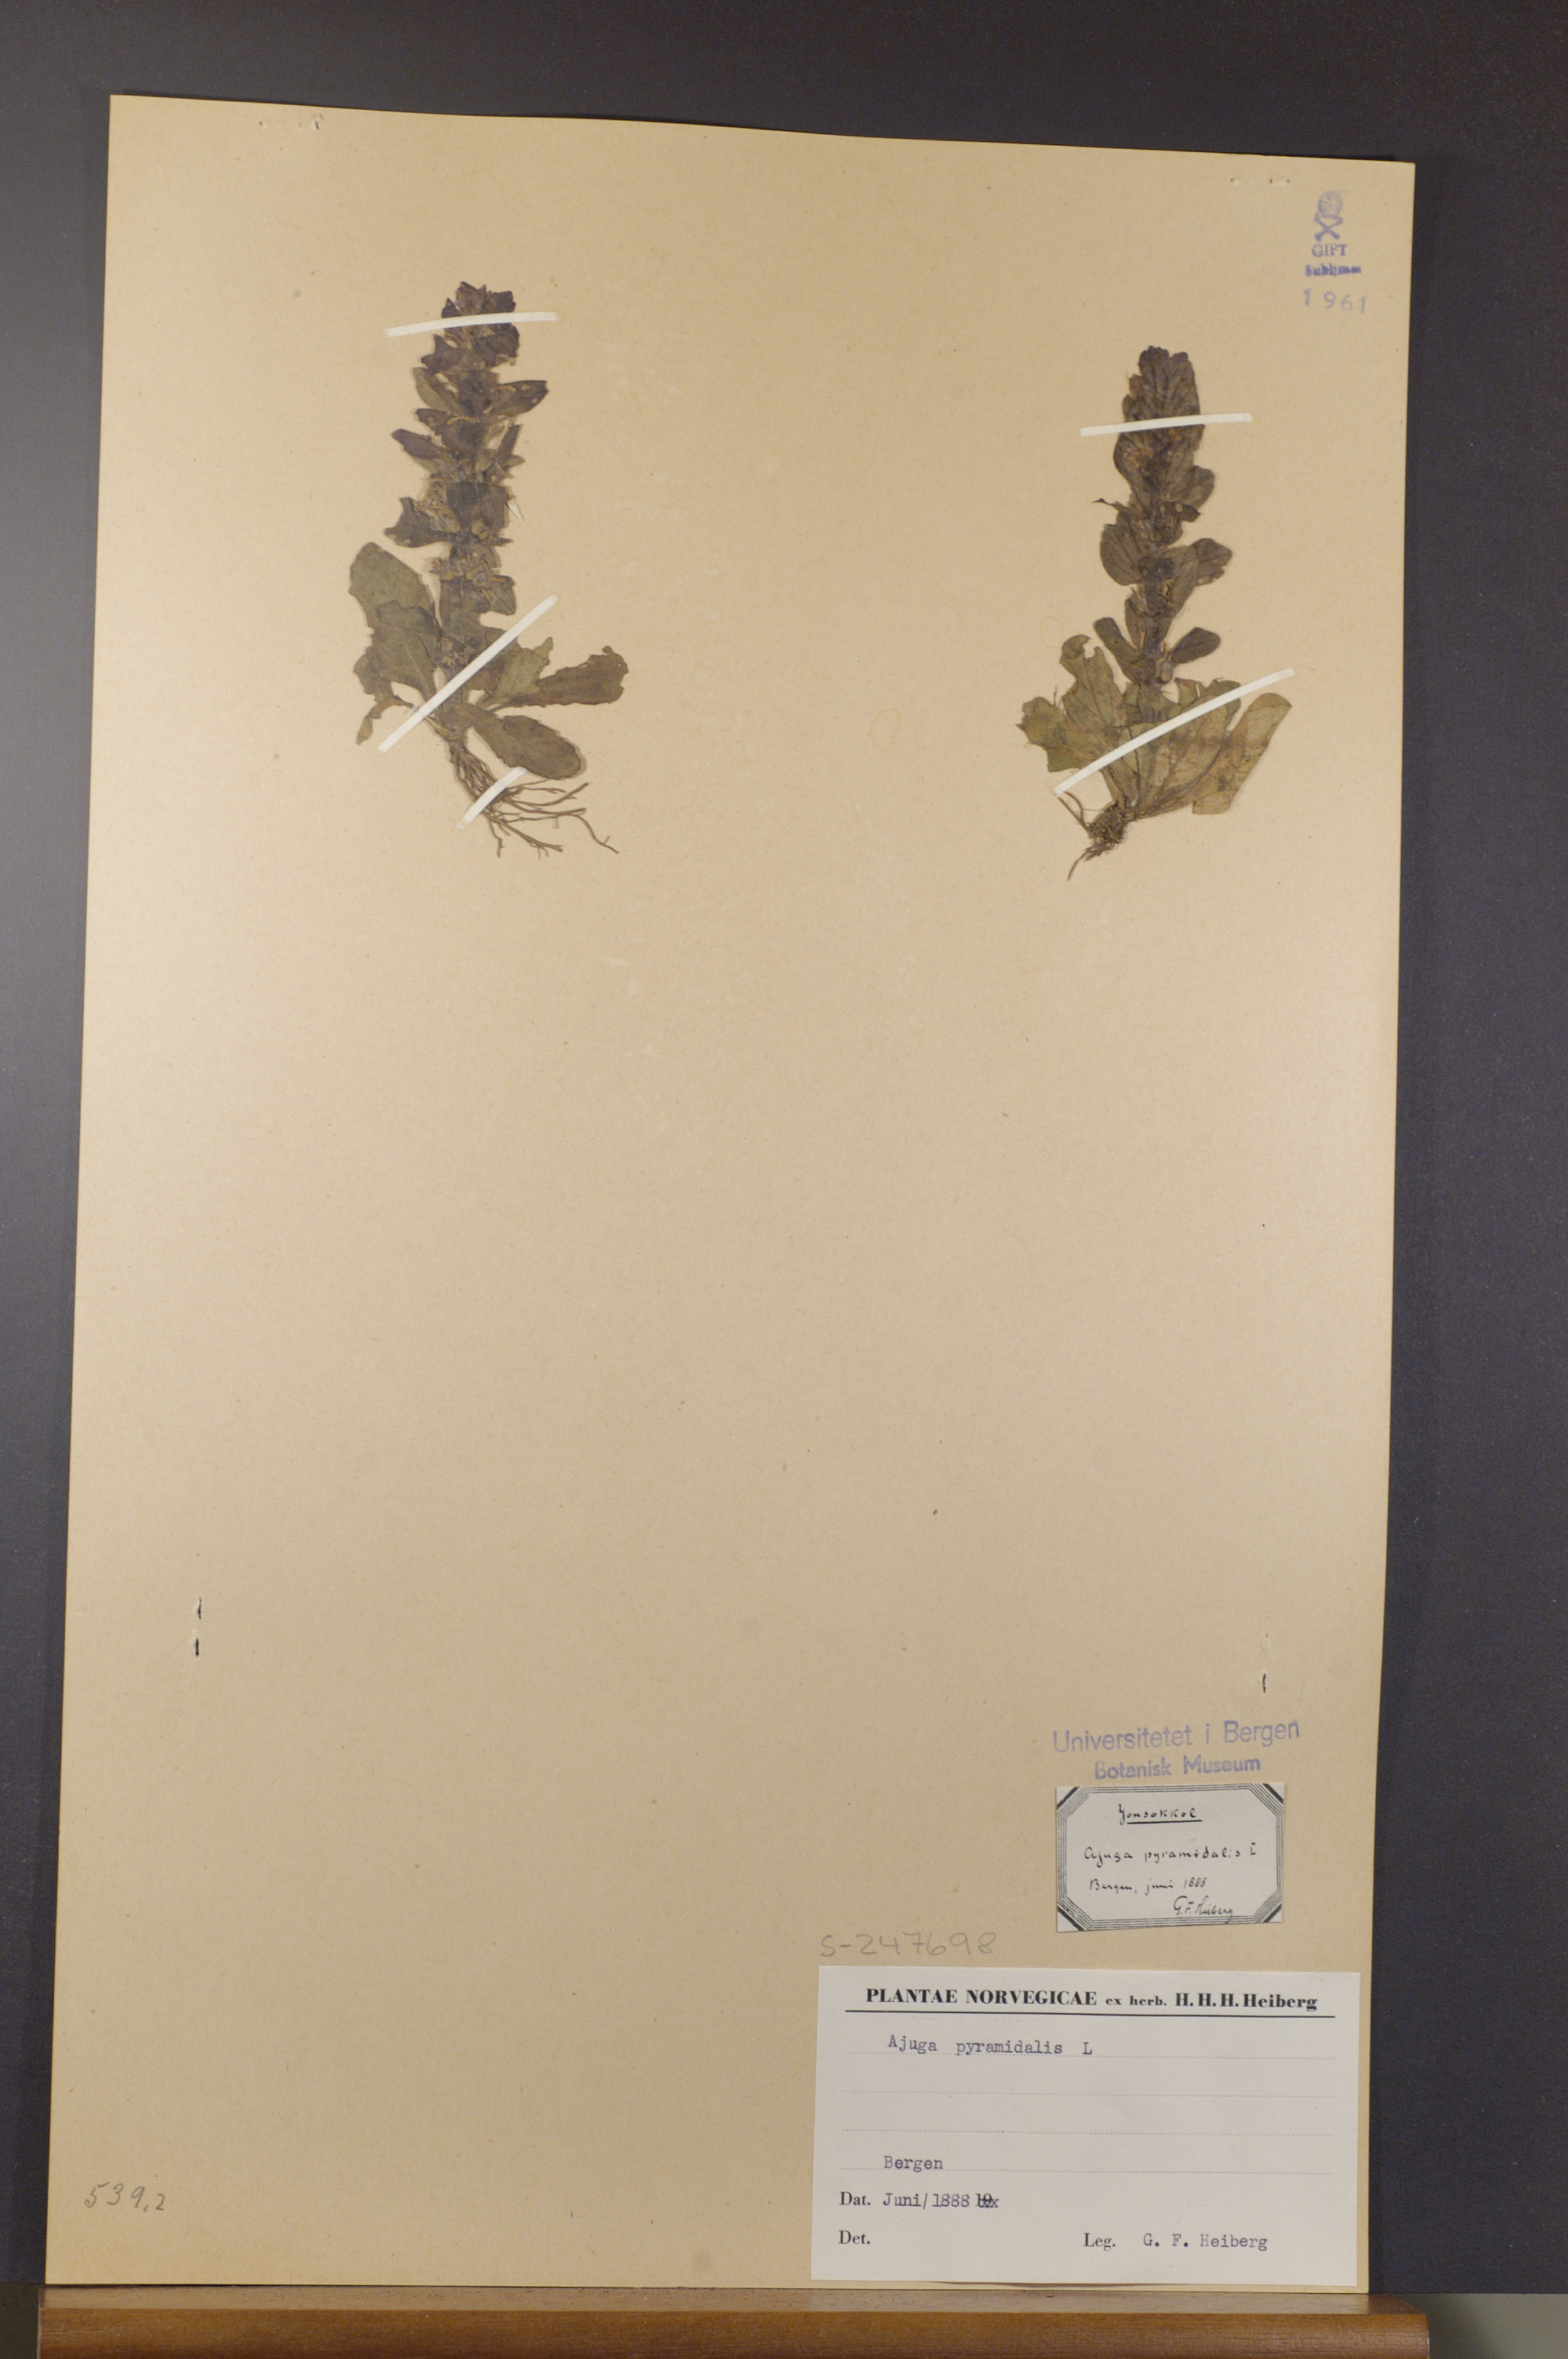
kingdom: Plantae
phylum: Tracheophyta
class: Magnoliopsida
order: Lamiales
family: Lamiaceae
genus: Ajuga
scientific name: Ajuga pyramidalis
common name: Pyramid bugle
